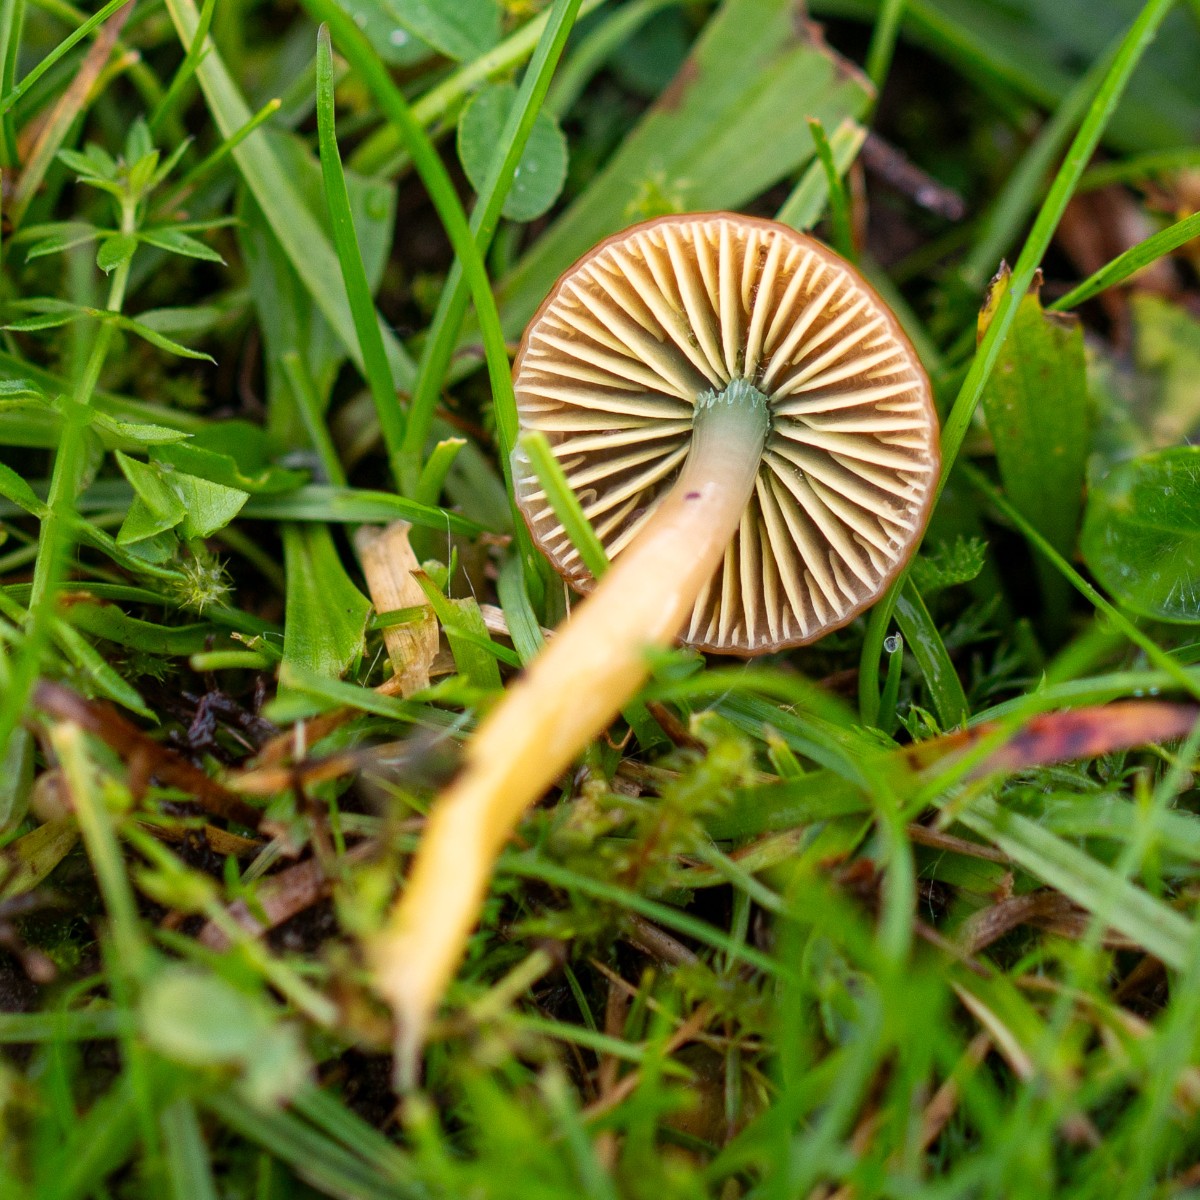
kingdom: Fungi
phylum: Basidiomycota
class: Agaricomycetes
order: Agaricales
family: Hygrophoraceae
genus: Gliophorus
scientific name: Gliophorus psittacinus
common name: papegøje-vokshat
